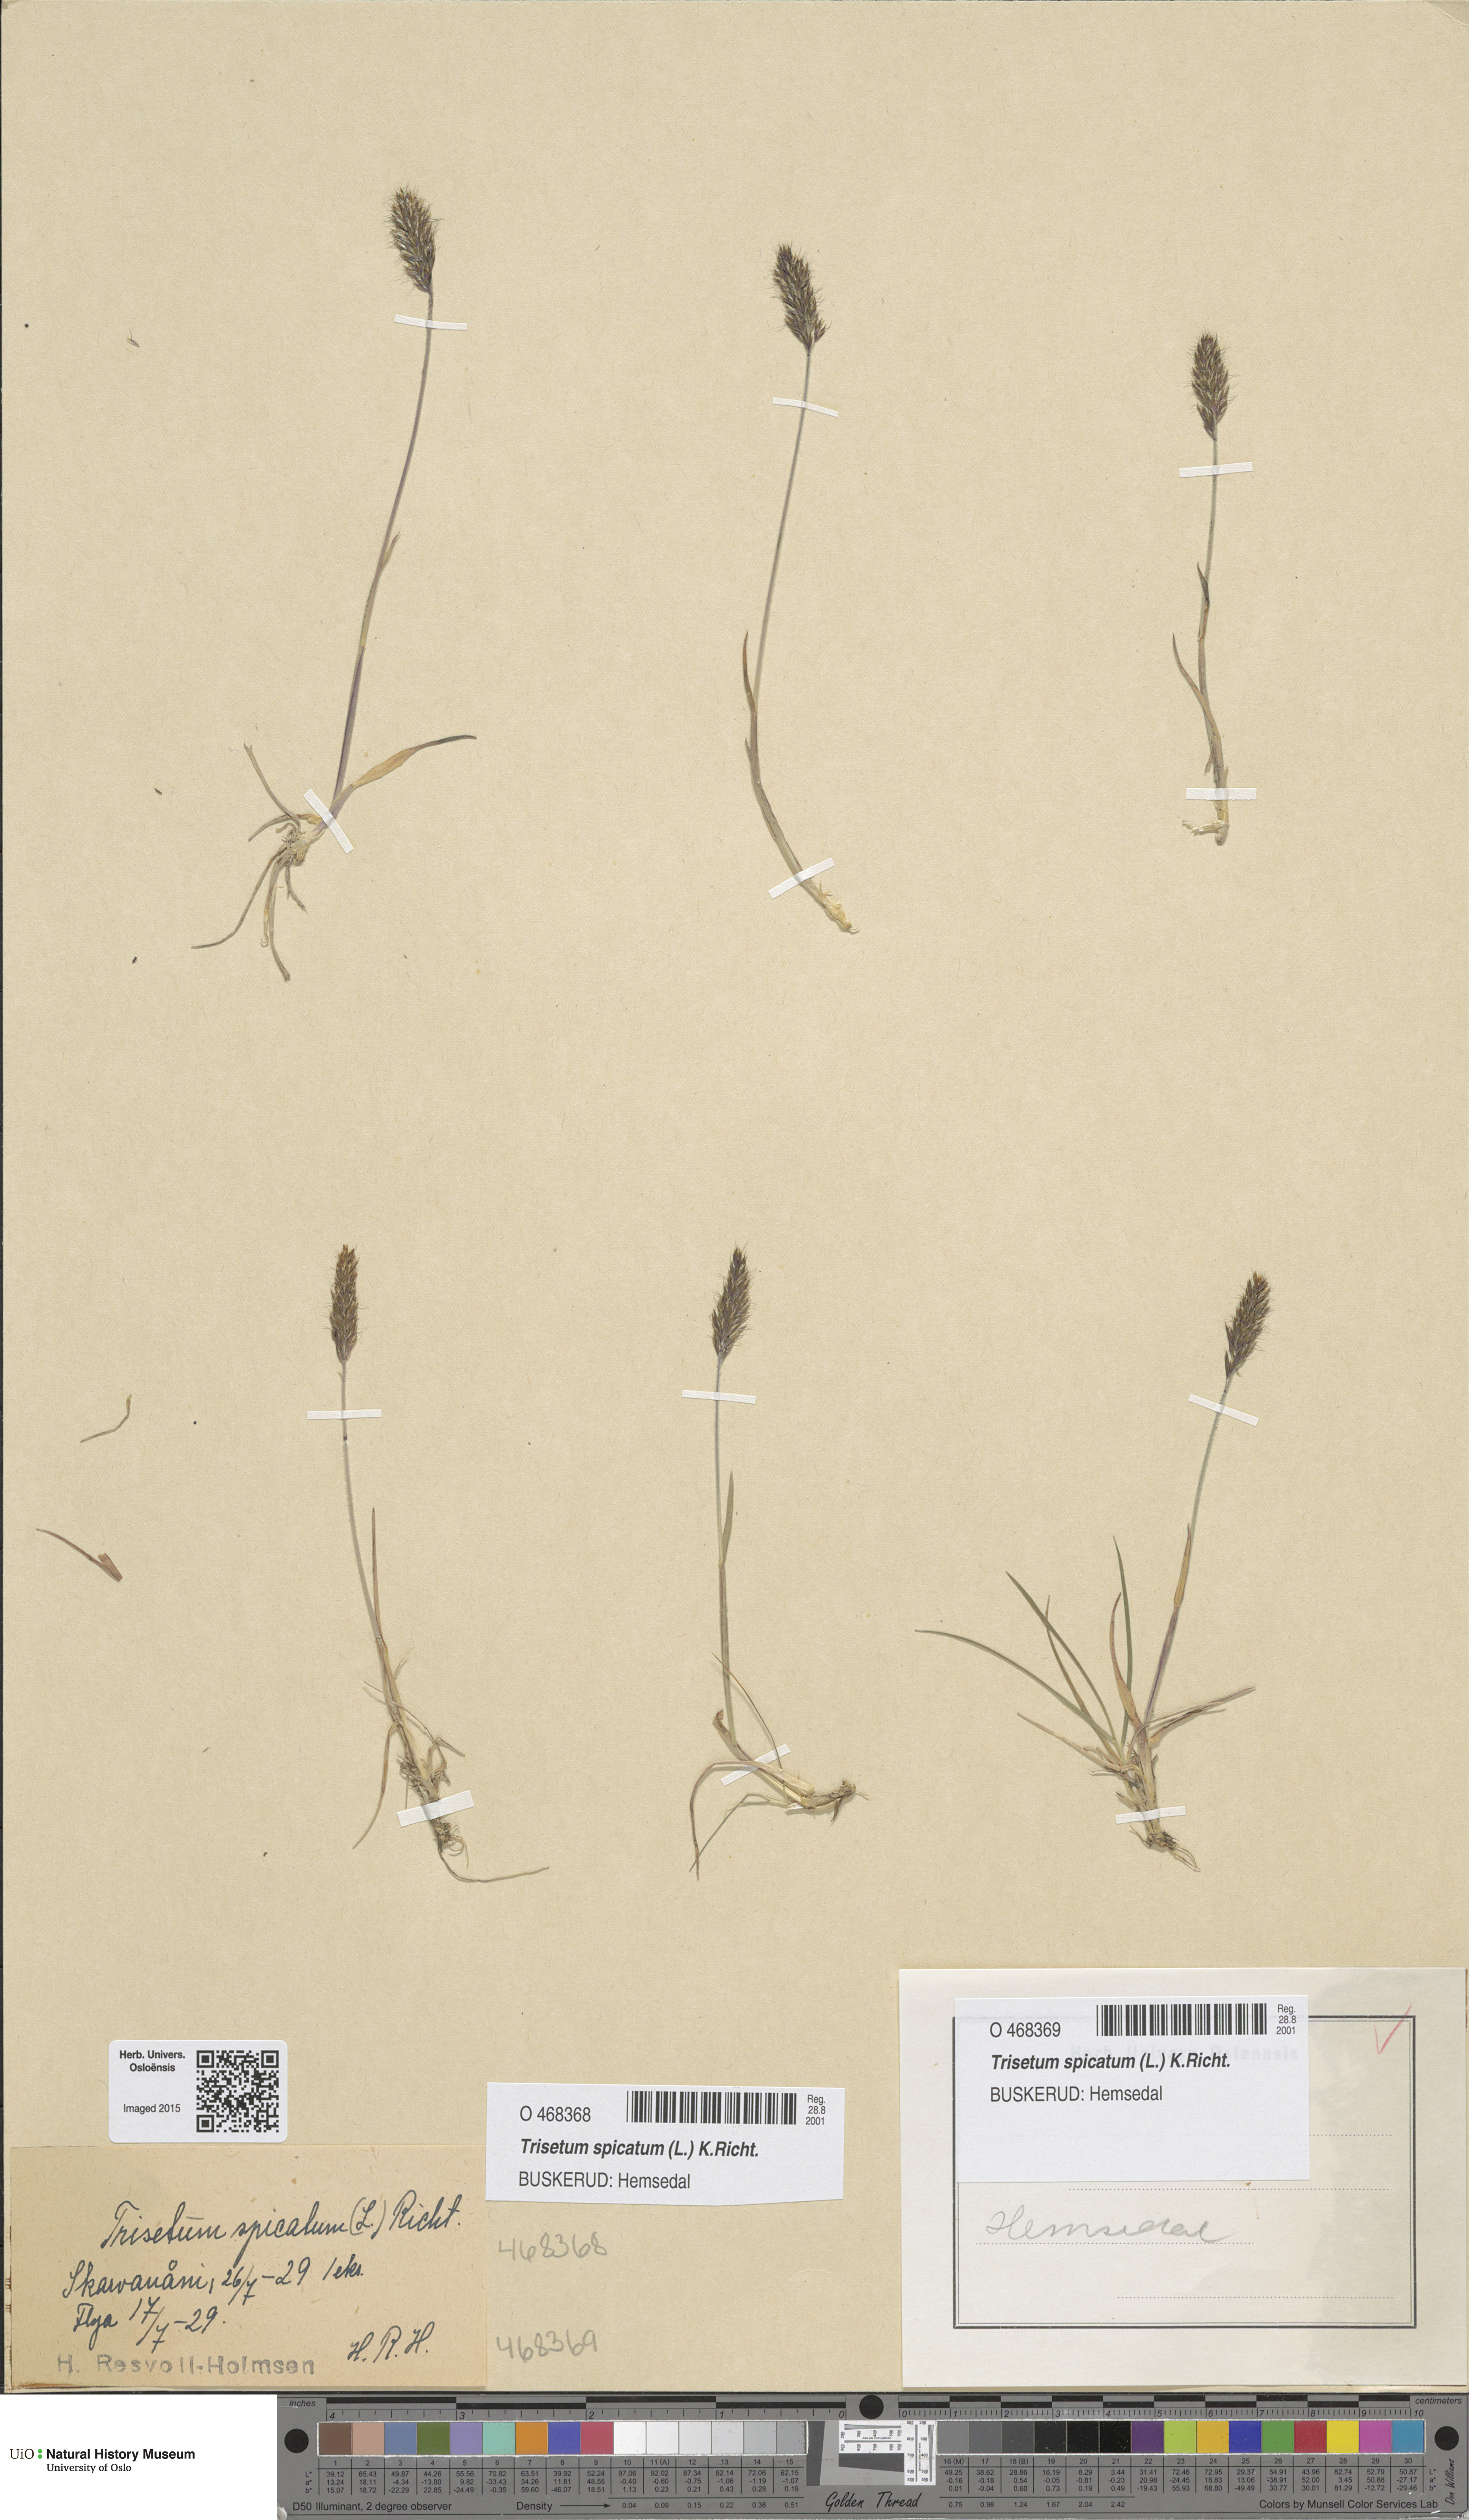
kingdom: Plantae
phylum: Tracheophyta
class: Liliopsida
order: Poales
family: Poaceae
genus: Koeleria
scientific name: Koeleria spicata
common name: Mountain trisetum
